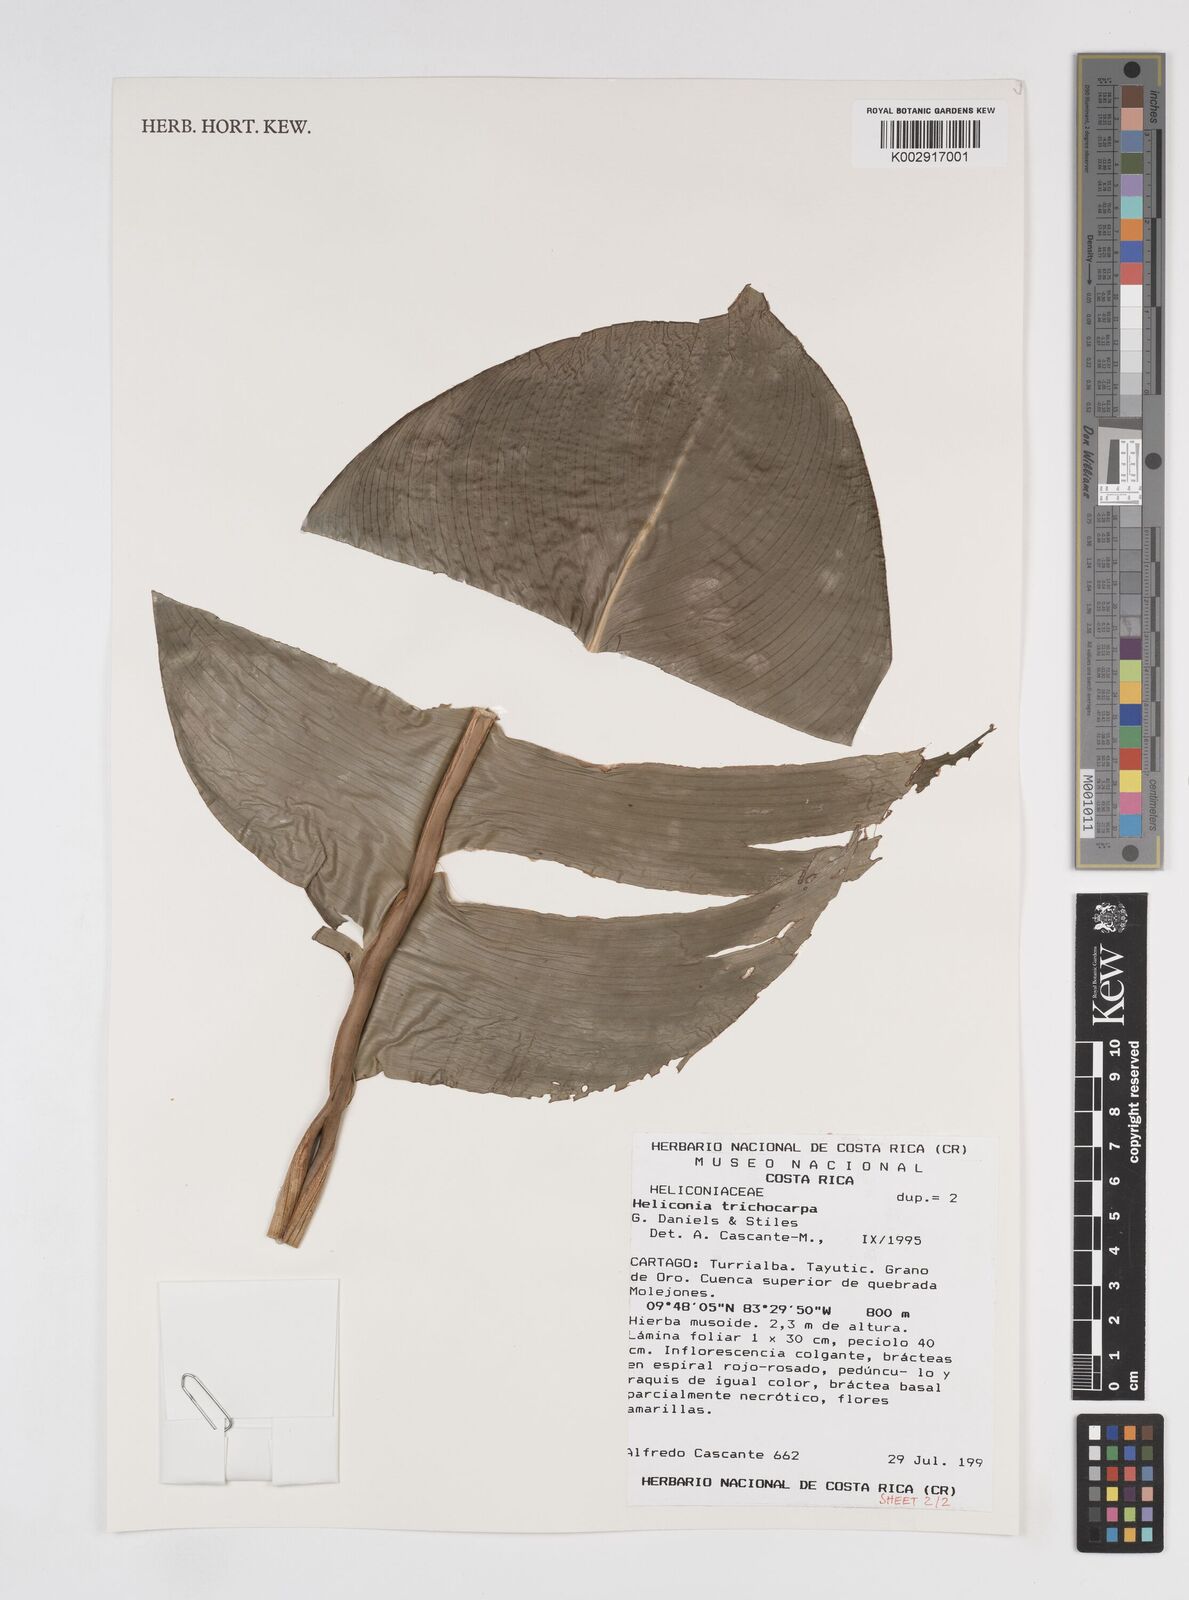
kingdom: Plantae
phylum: Tracheophyta
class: Liliopsida
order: Zingiberales
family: Heliconiaceae
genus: Heliconia
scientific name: Heliconia trichocarpa
